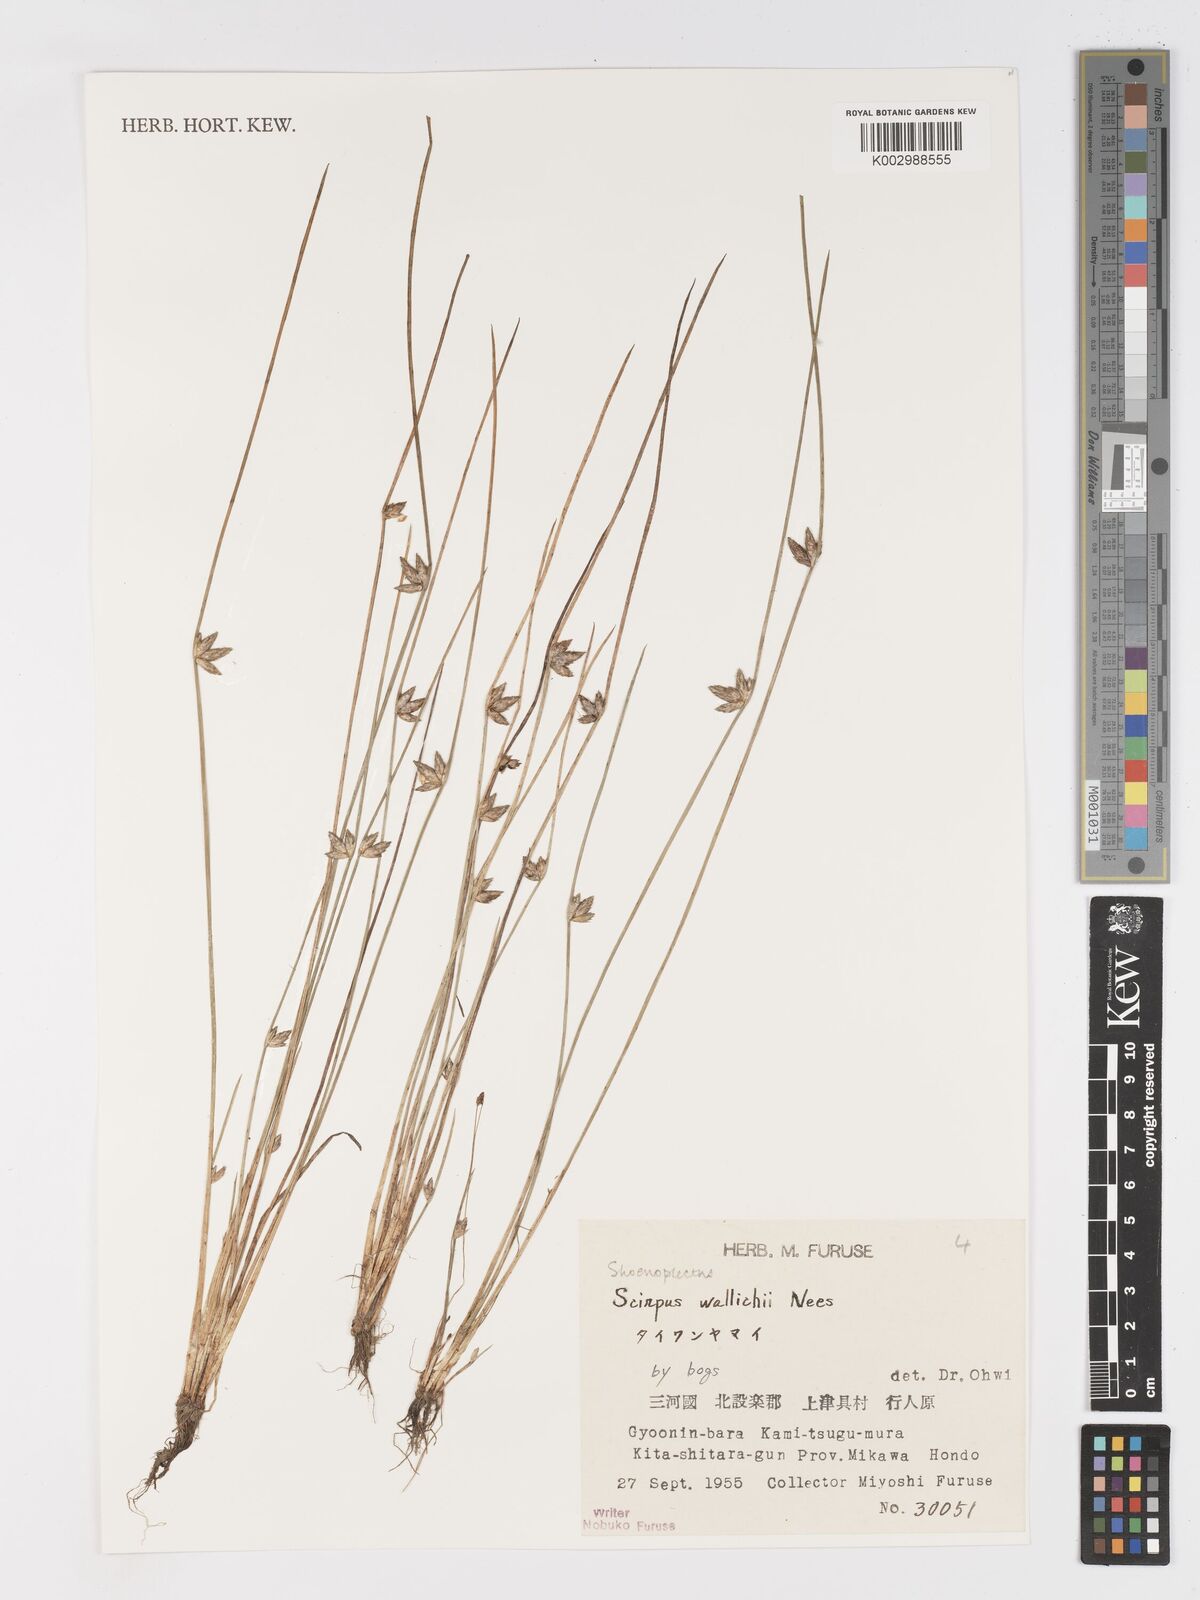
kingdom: Plantae
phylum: Tracheophyta
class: Liliopsida
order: Poales
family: Cyperaceae
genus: Schoenoplectiella
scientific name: Schoenoplectiella wallichii
